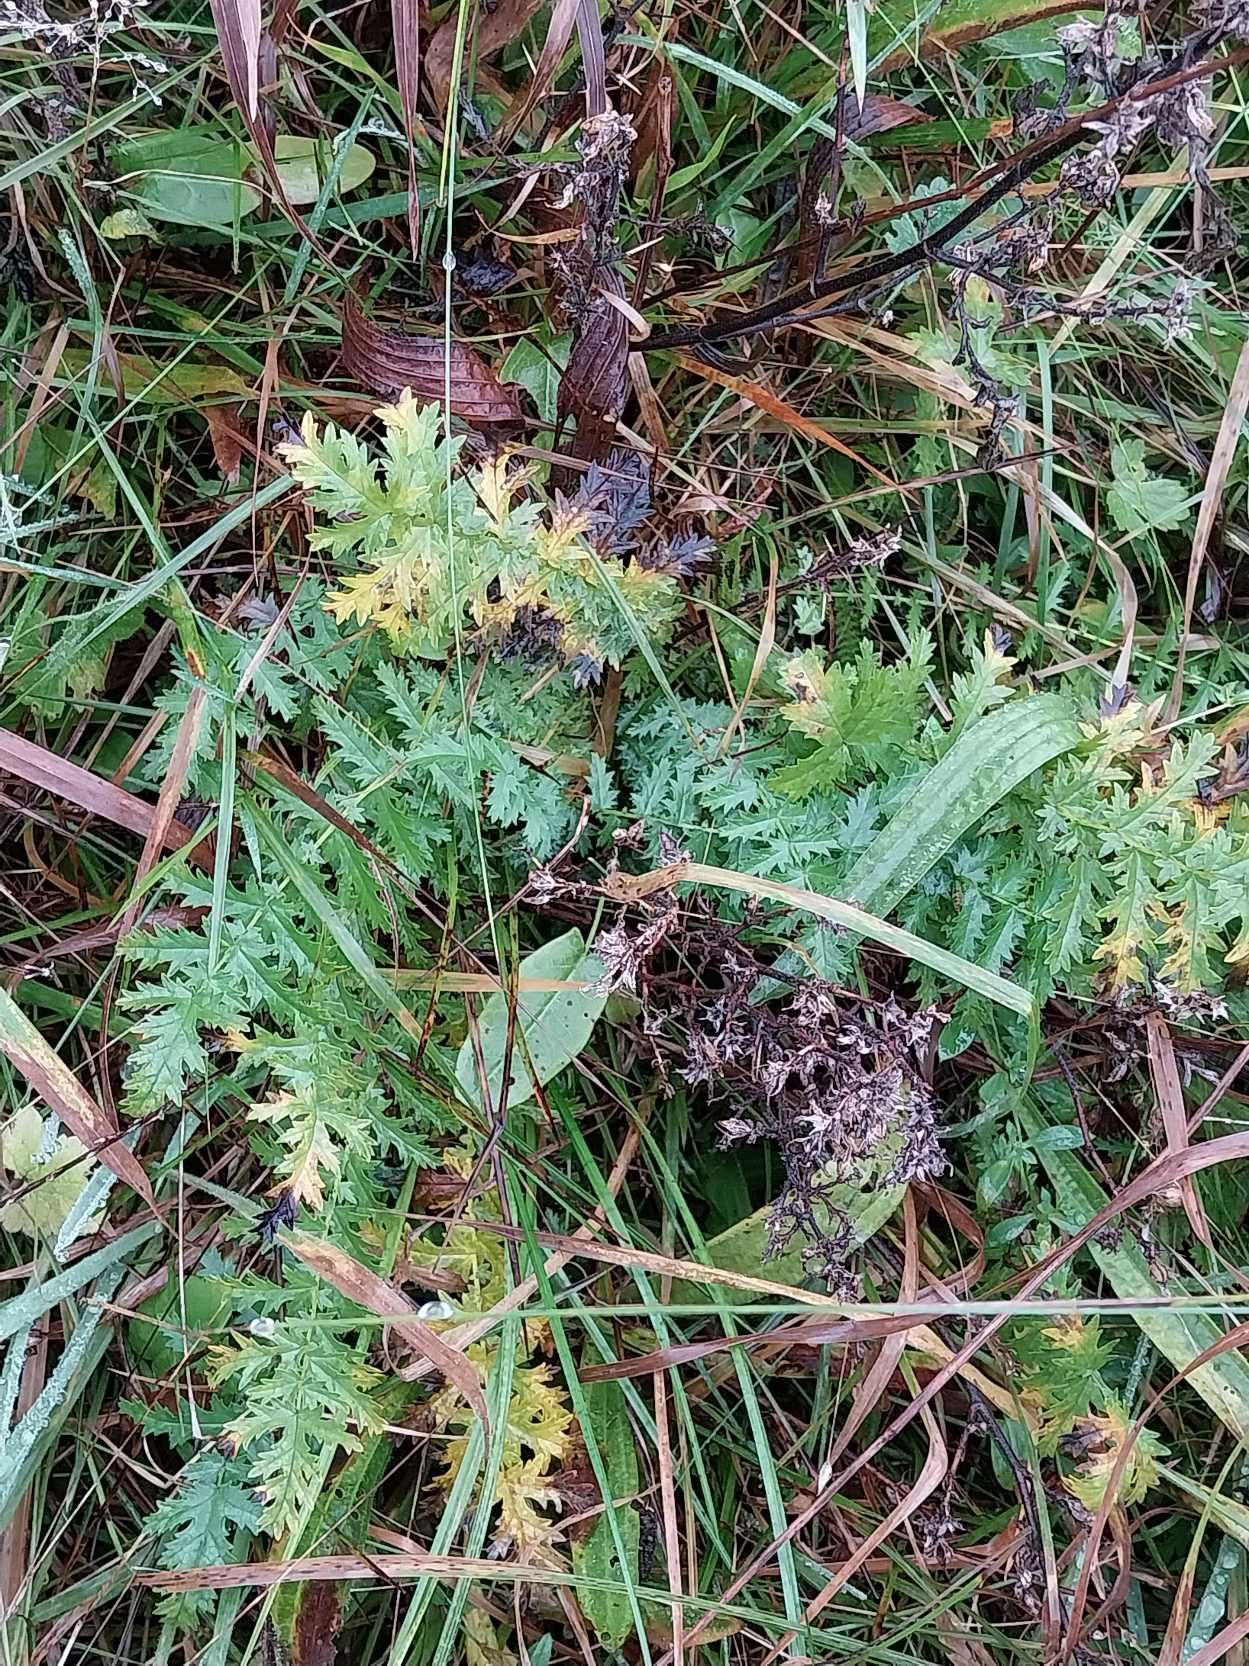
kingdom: Plantae
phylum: Tracheophyta
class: Magnoliopsida
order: Rosales
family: Rosaceae
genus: Filipendula
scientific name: Filipendula vulgaris
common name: Knoldet mjødurt
